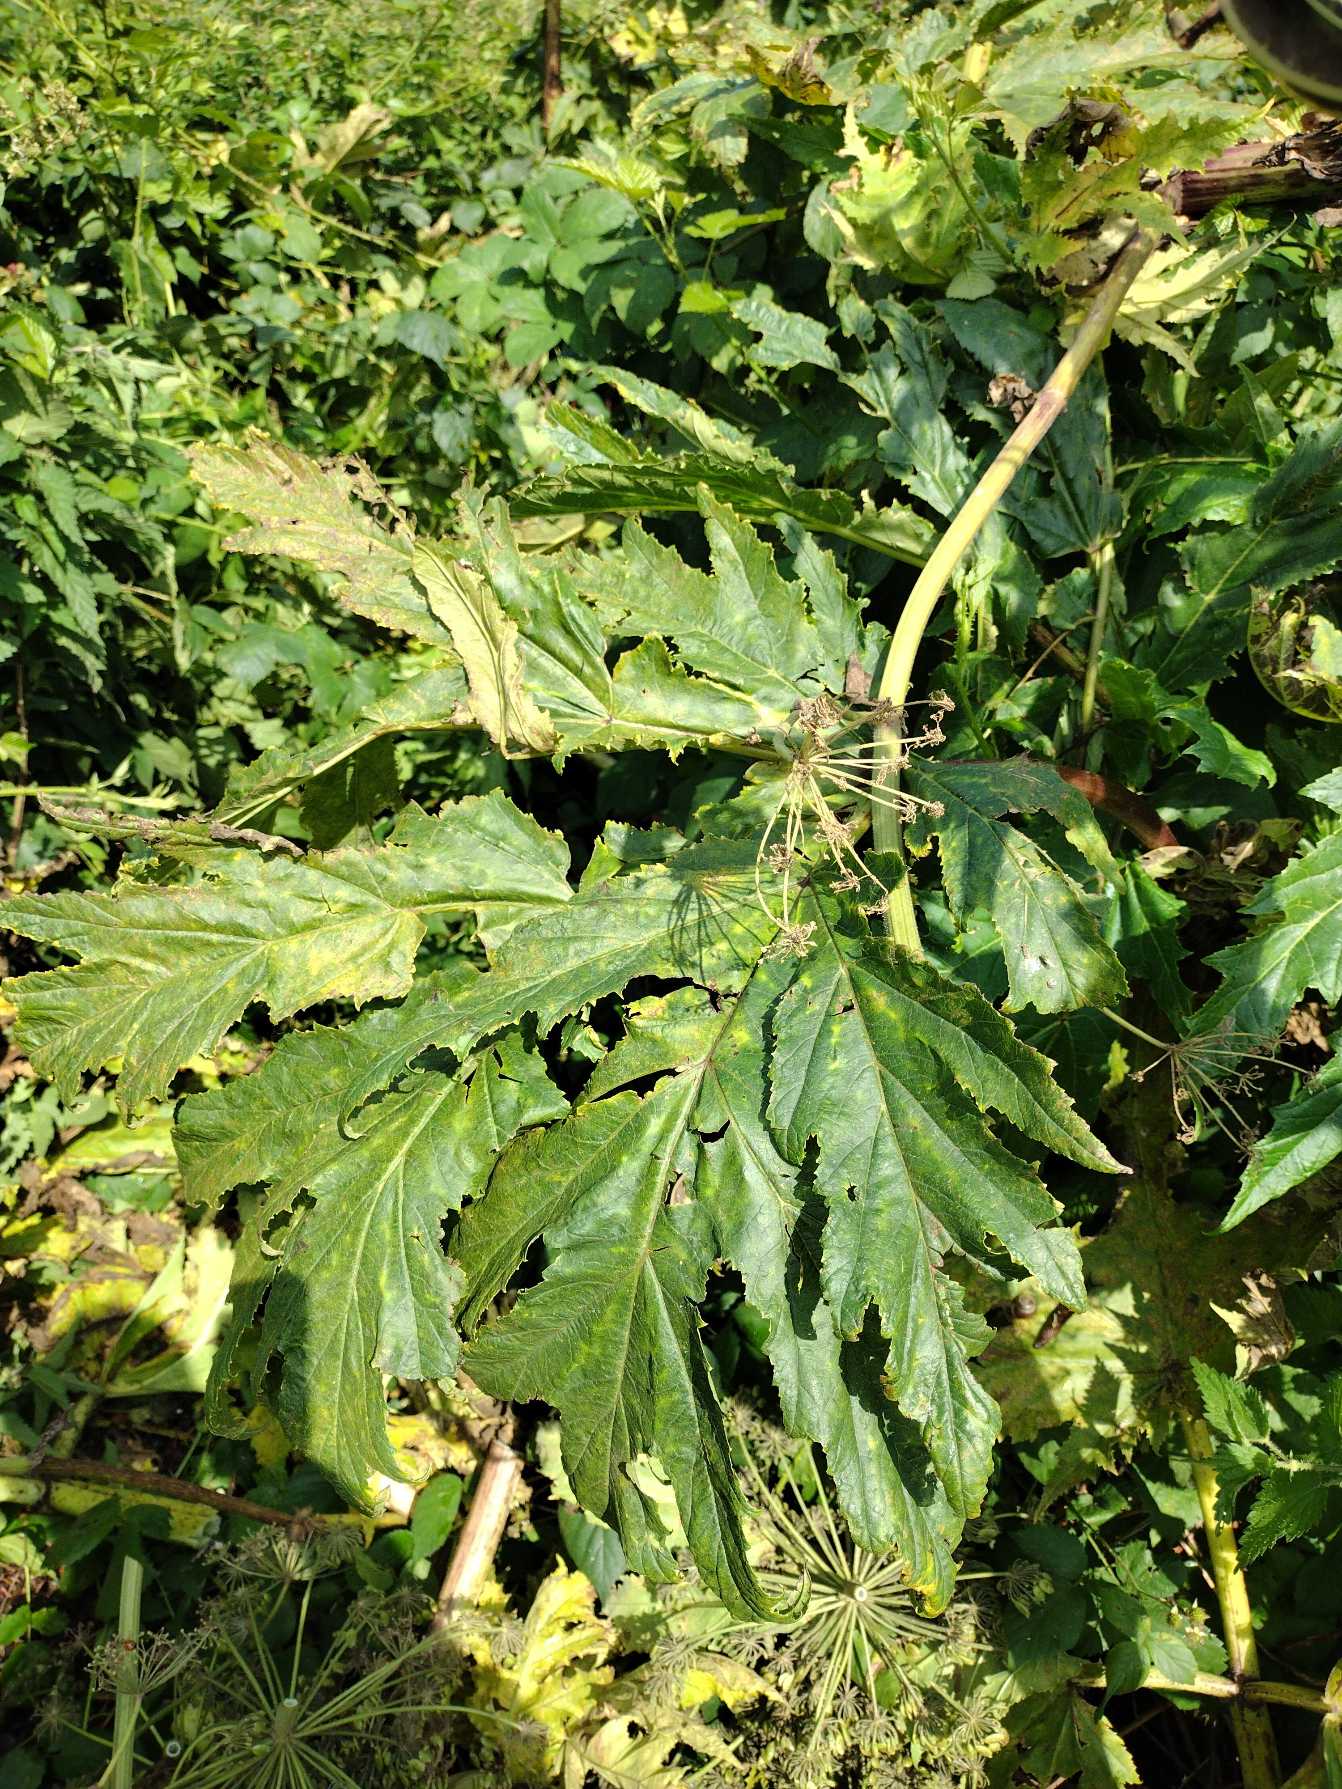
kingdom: Plantae
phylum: Tracheophyta
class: Magnoliopsida
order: Apiales
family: Apiaceae
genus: Heracleum
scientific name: Heracleum mantegazzianum
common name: Kæmpe-bjørneklo
